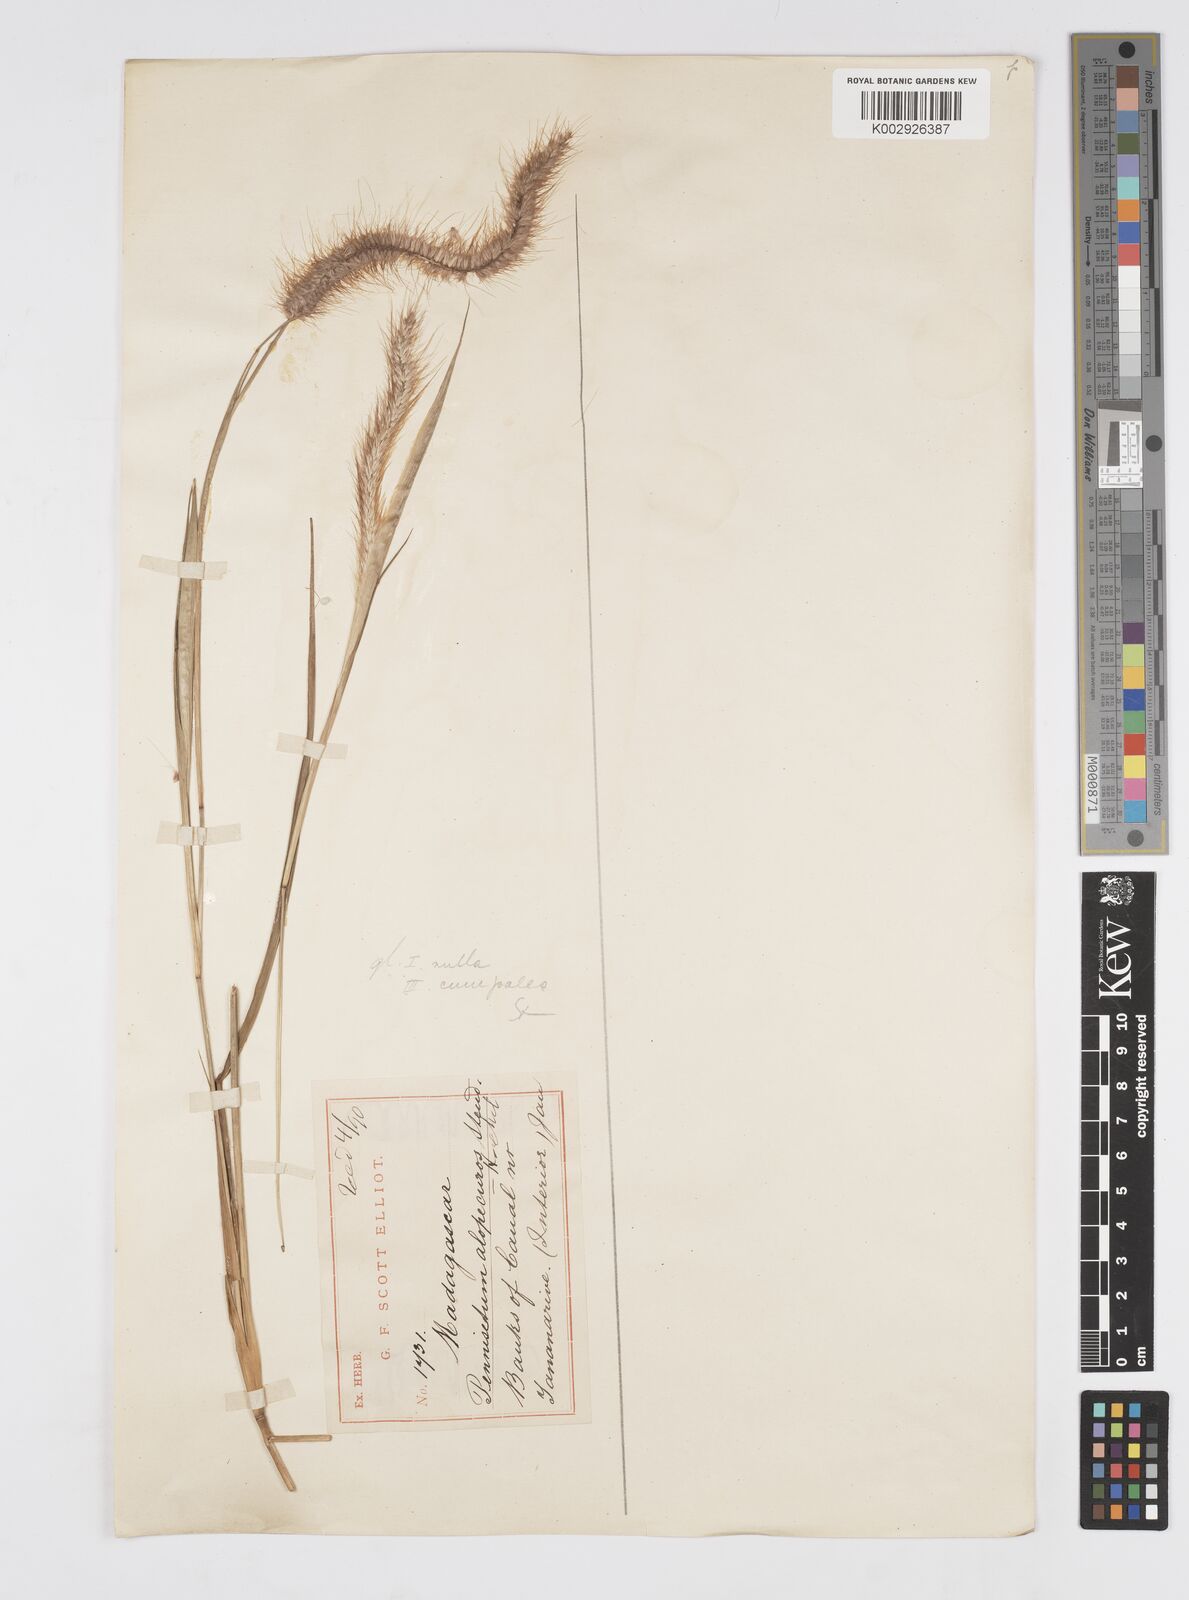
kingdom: Plantae
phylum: Tracheophyta
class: Liliopsida
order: Poales
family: Poaceae
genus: Setaria
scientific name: Setaria parviflora
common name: Knotroot bristle-grass
